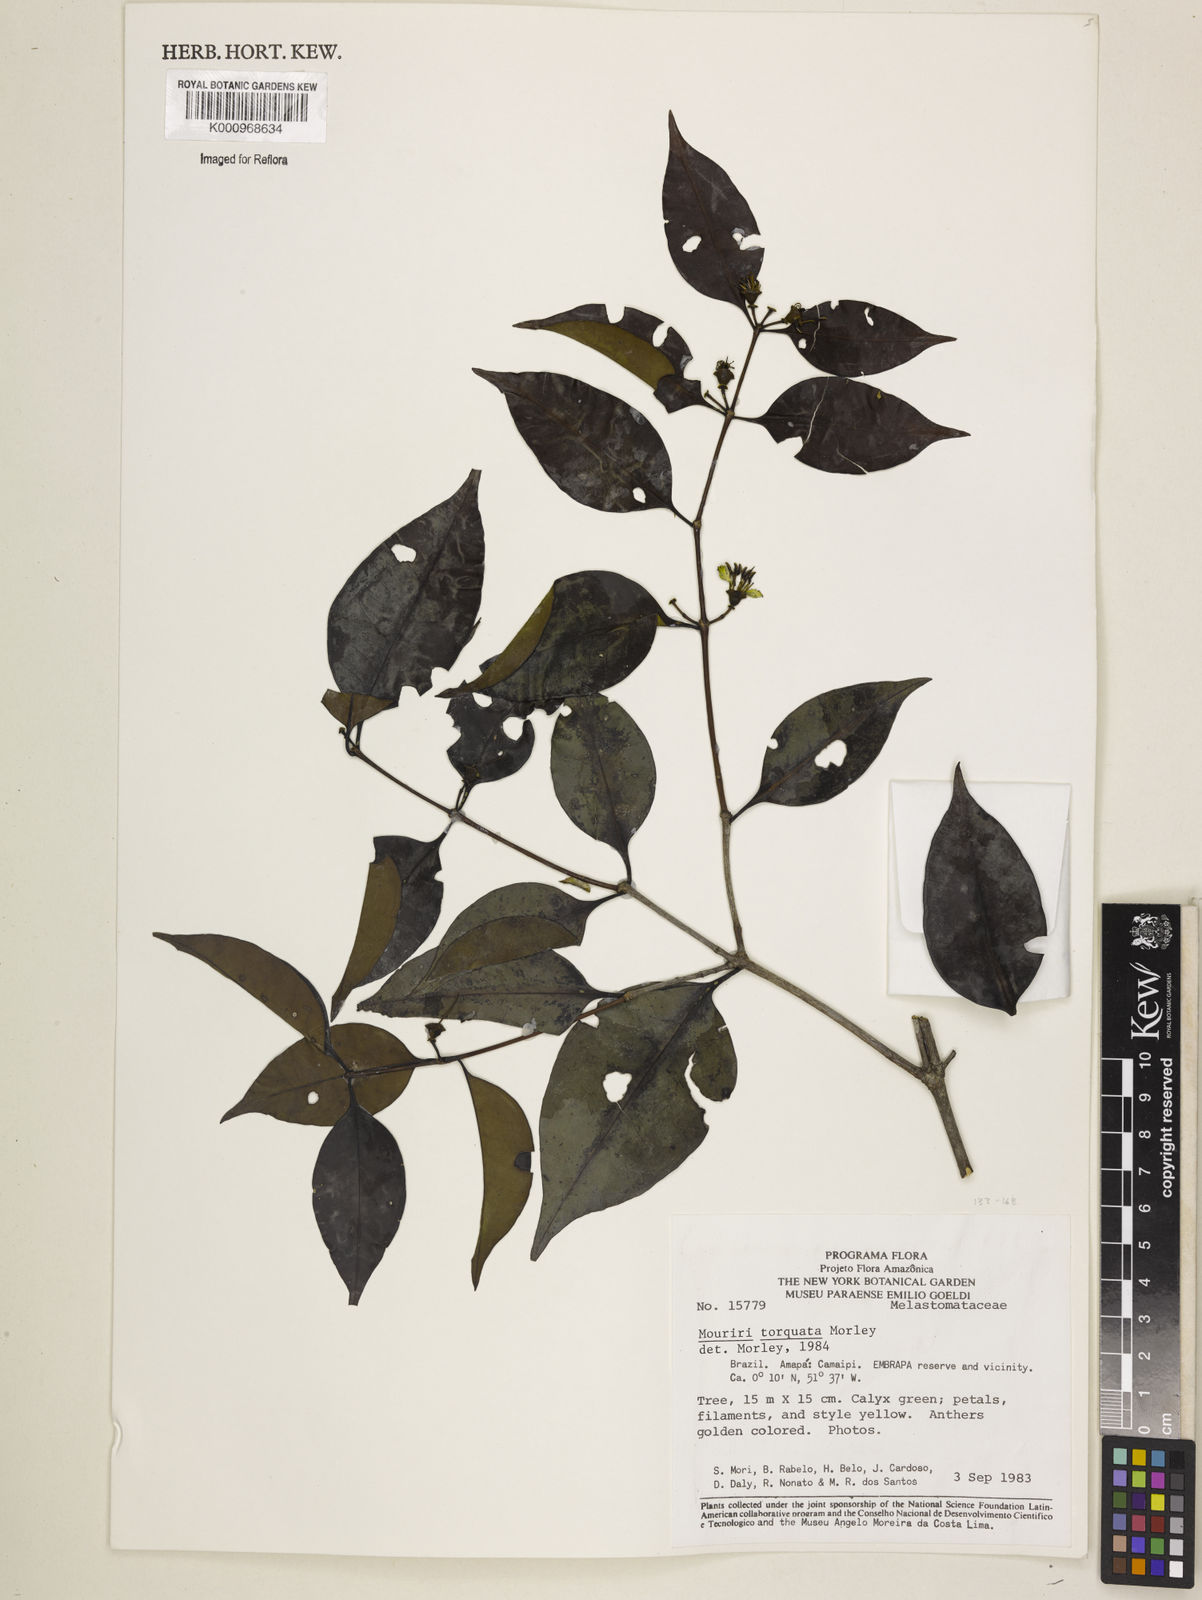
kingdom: Plantae
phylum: Tracheophyta
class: Magnoliopsida
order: Myrtales
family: Melastomataceae
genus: Mouriri
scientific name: Mouriri torquata
